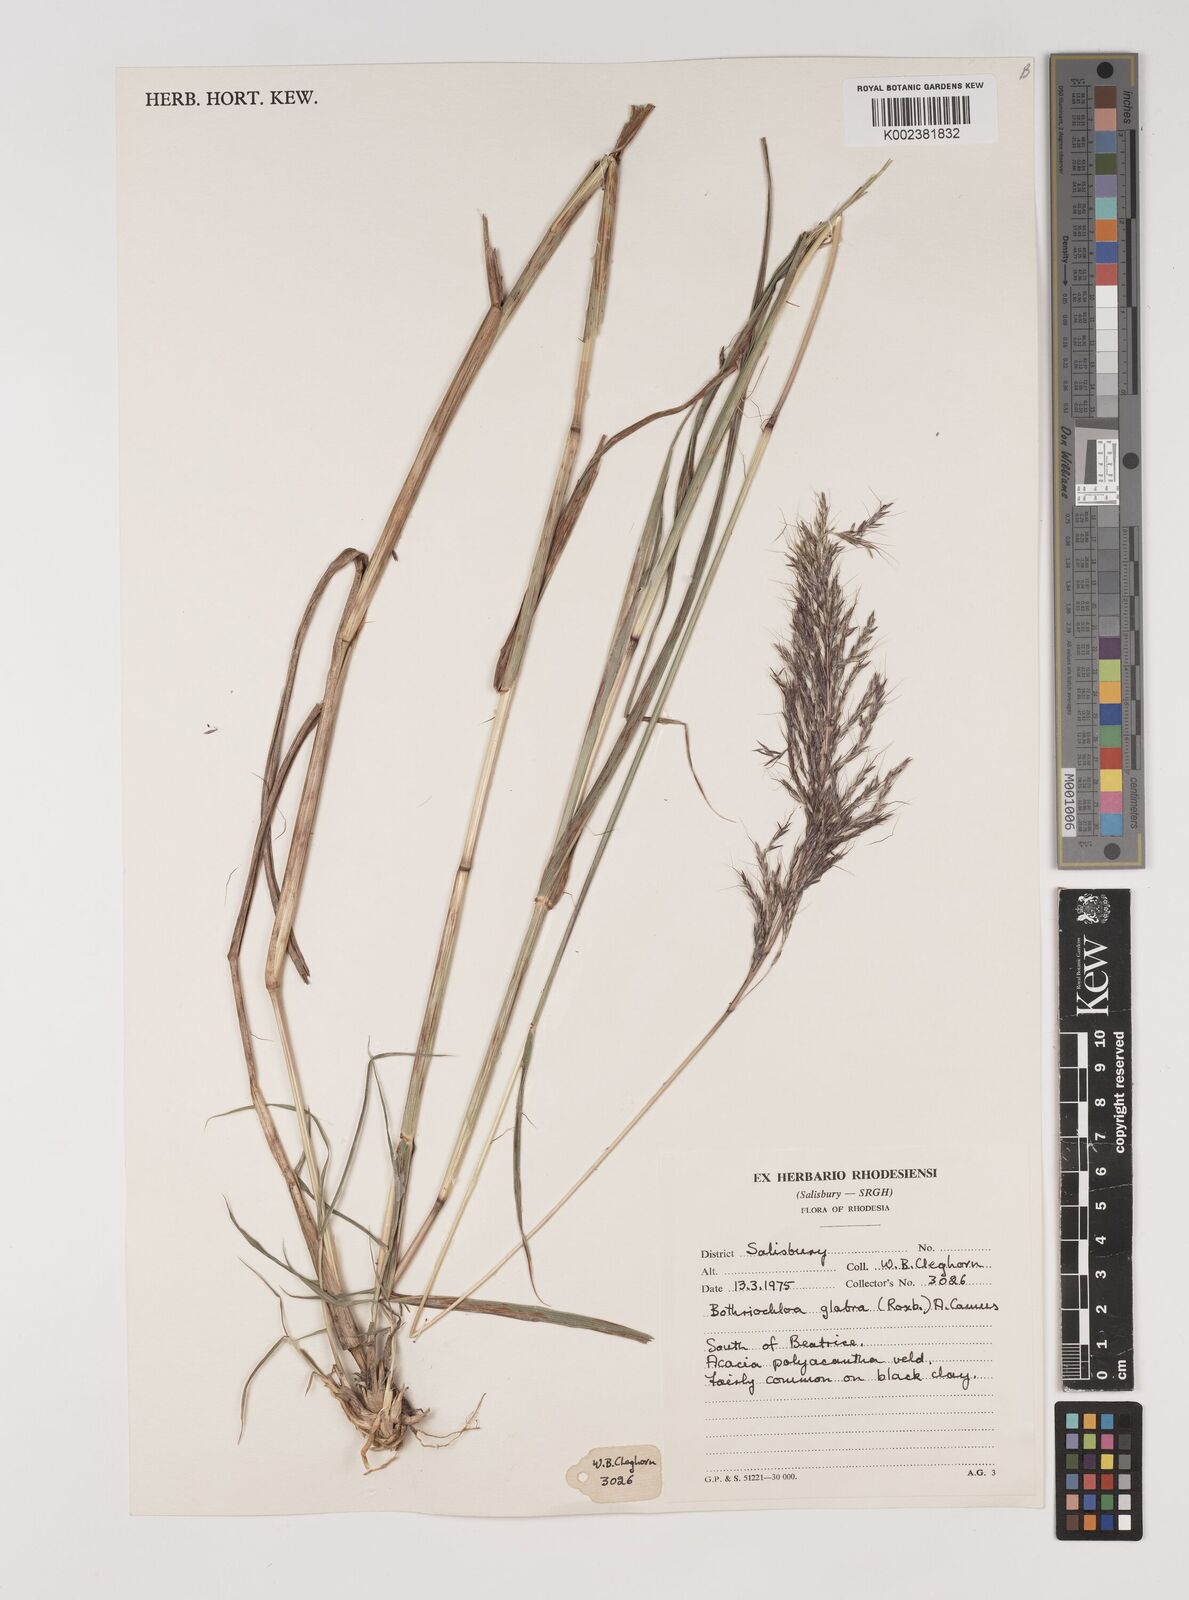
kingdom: Plantae
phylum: Tracheophyta
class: Liliopsida
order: Poales
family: Poaceae
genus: Bothriochloa
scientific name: Bothriochloa bladhii
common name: Caucasian bluestem
